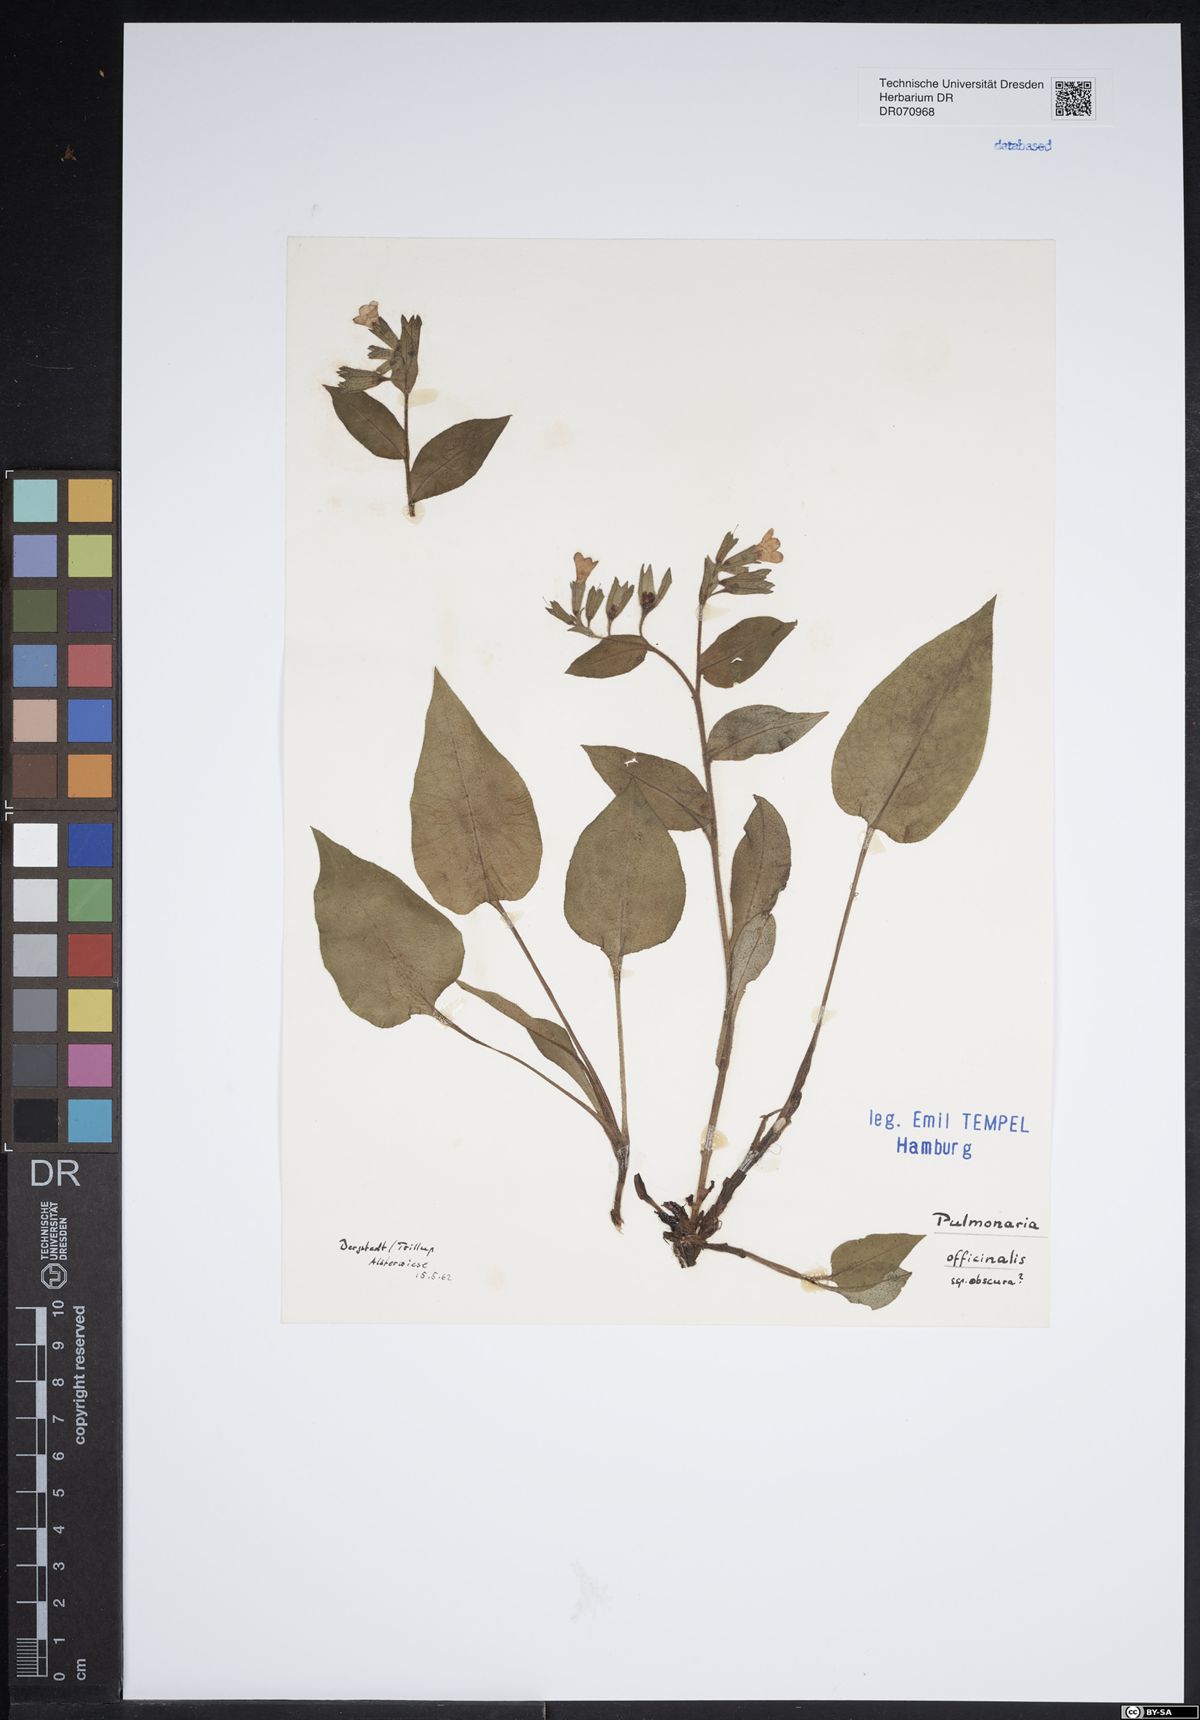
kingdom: Plantae
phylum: Tracheophyta
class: Magnoliopsida
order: Boraginales
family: Boraginaceae
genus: Pulmonaria
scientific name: Pulmonaria officinalis
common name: Lungwort
